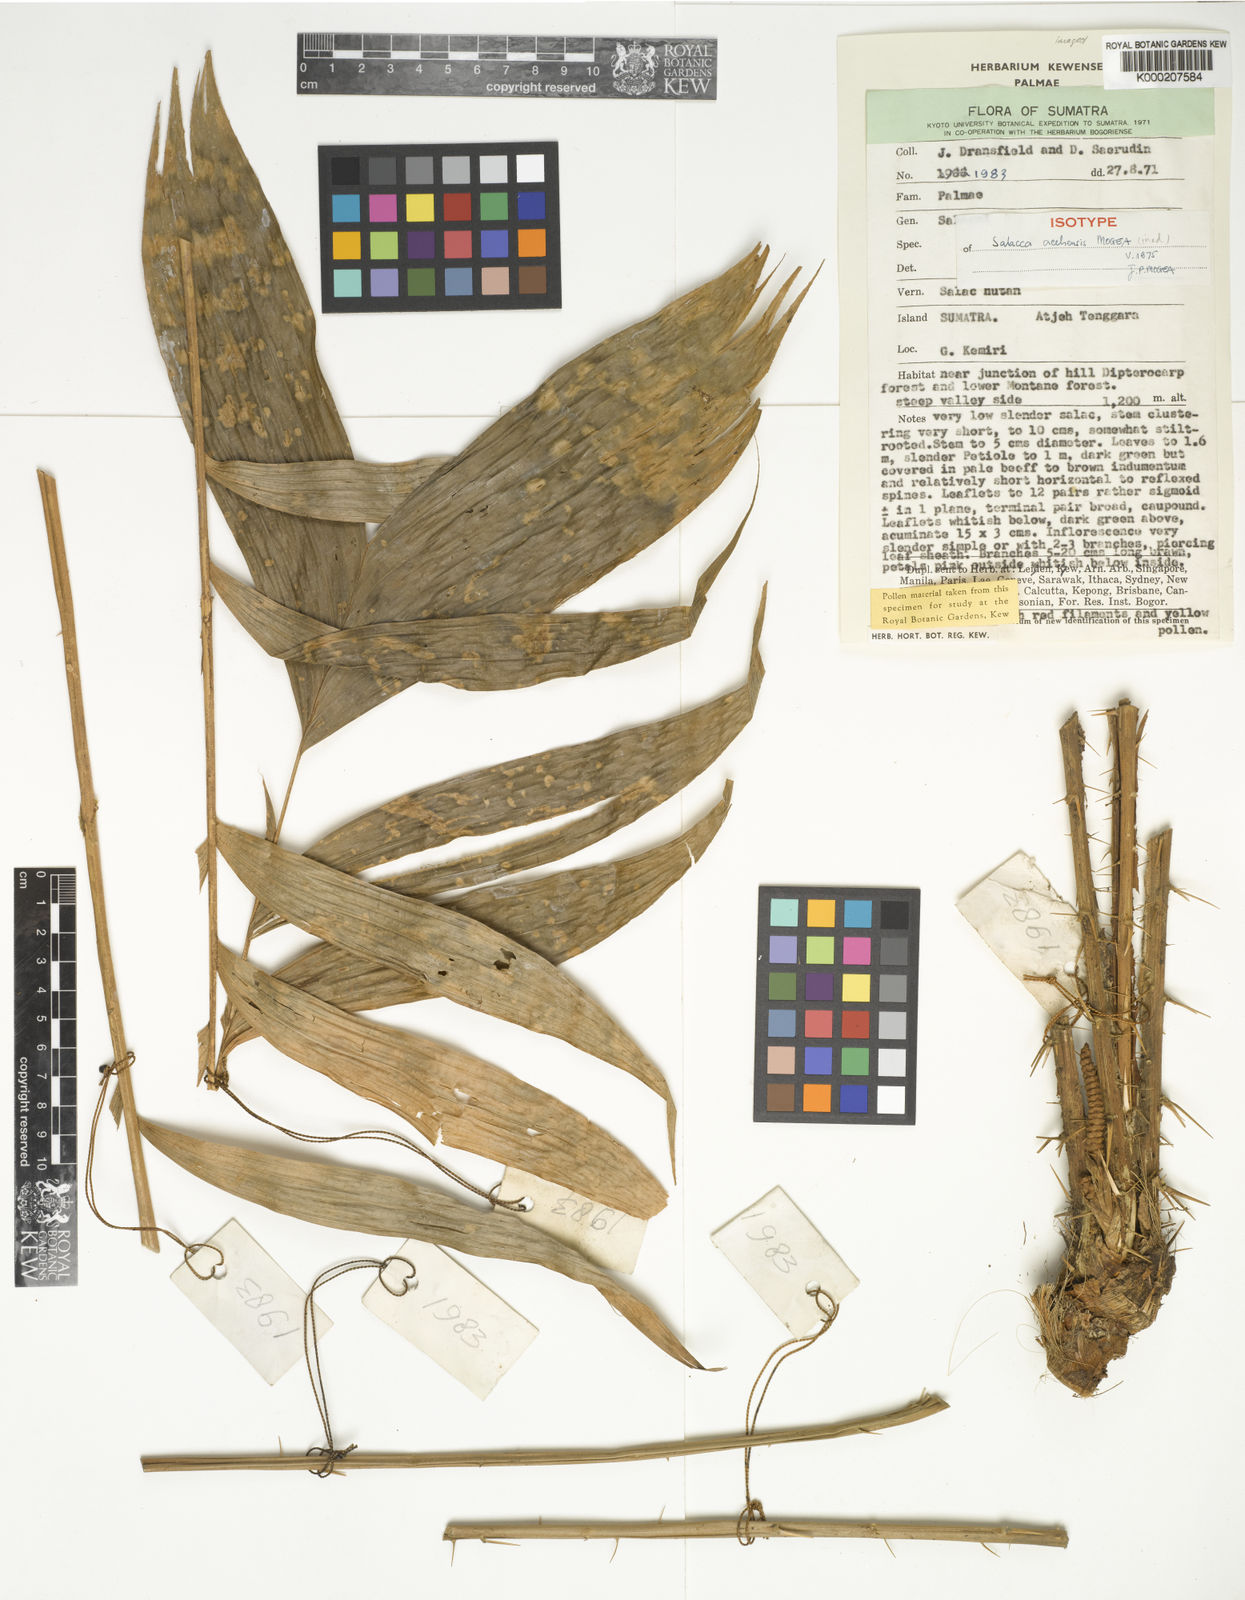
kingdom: Plantae
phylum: Tracheophyta
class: Liliopsida
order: Arecales
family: Arecaceae
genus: Salacca
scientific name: Salacca acehensis
